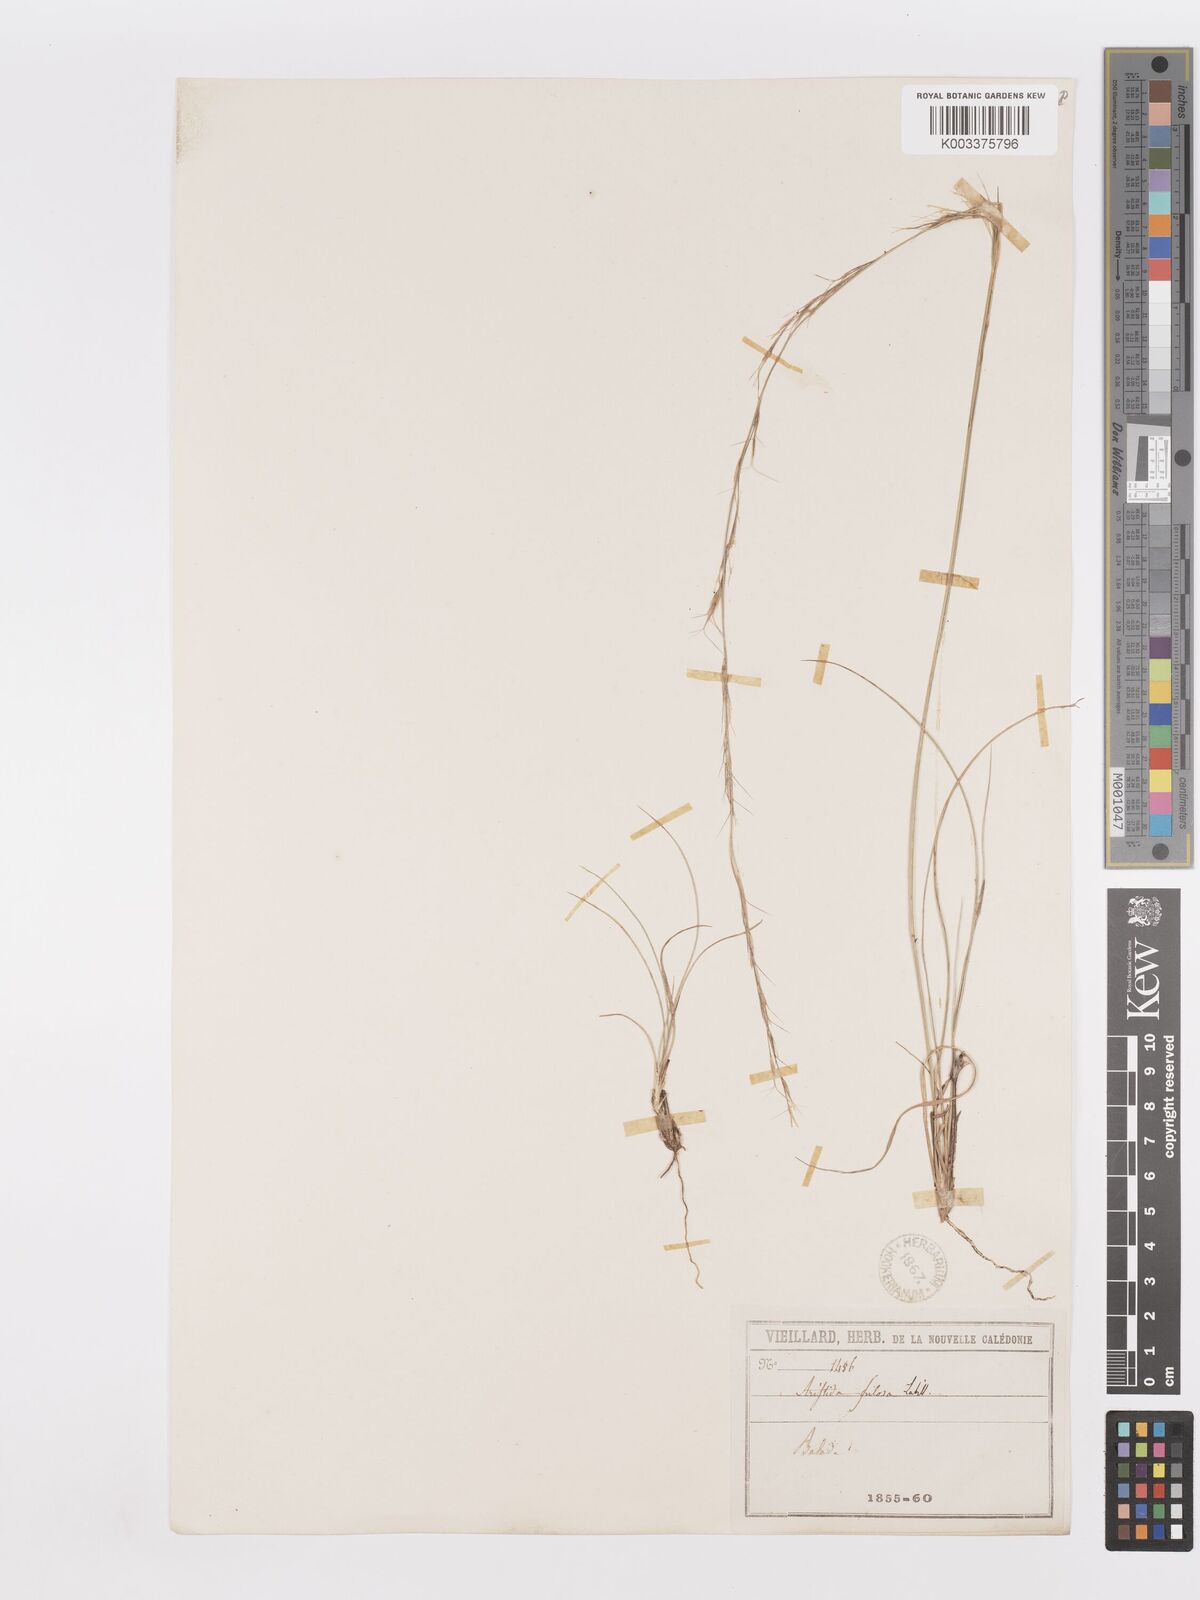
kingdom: Plantae
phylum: Tracheophyta
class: Liliopsida
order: Poales
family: Poaceae
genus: Aristida
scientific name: Aristida pilosa
